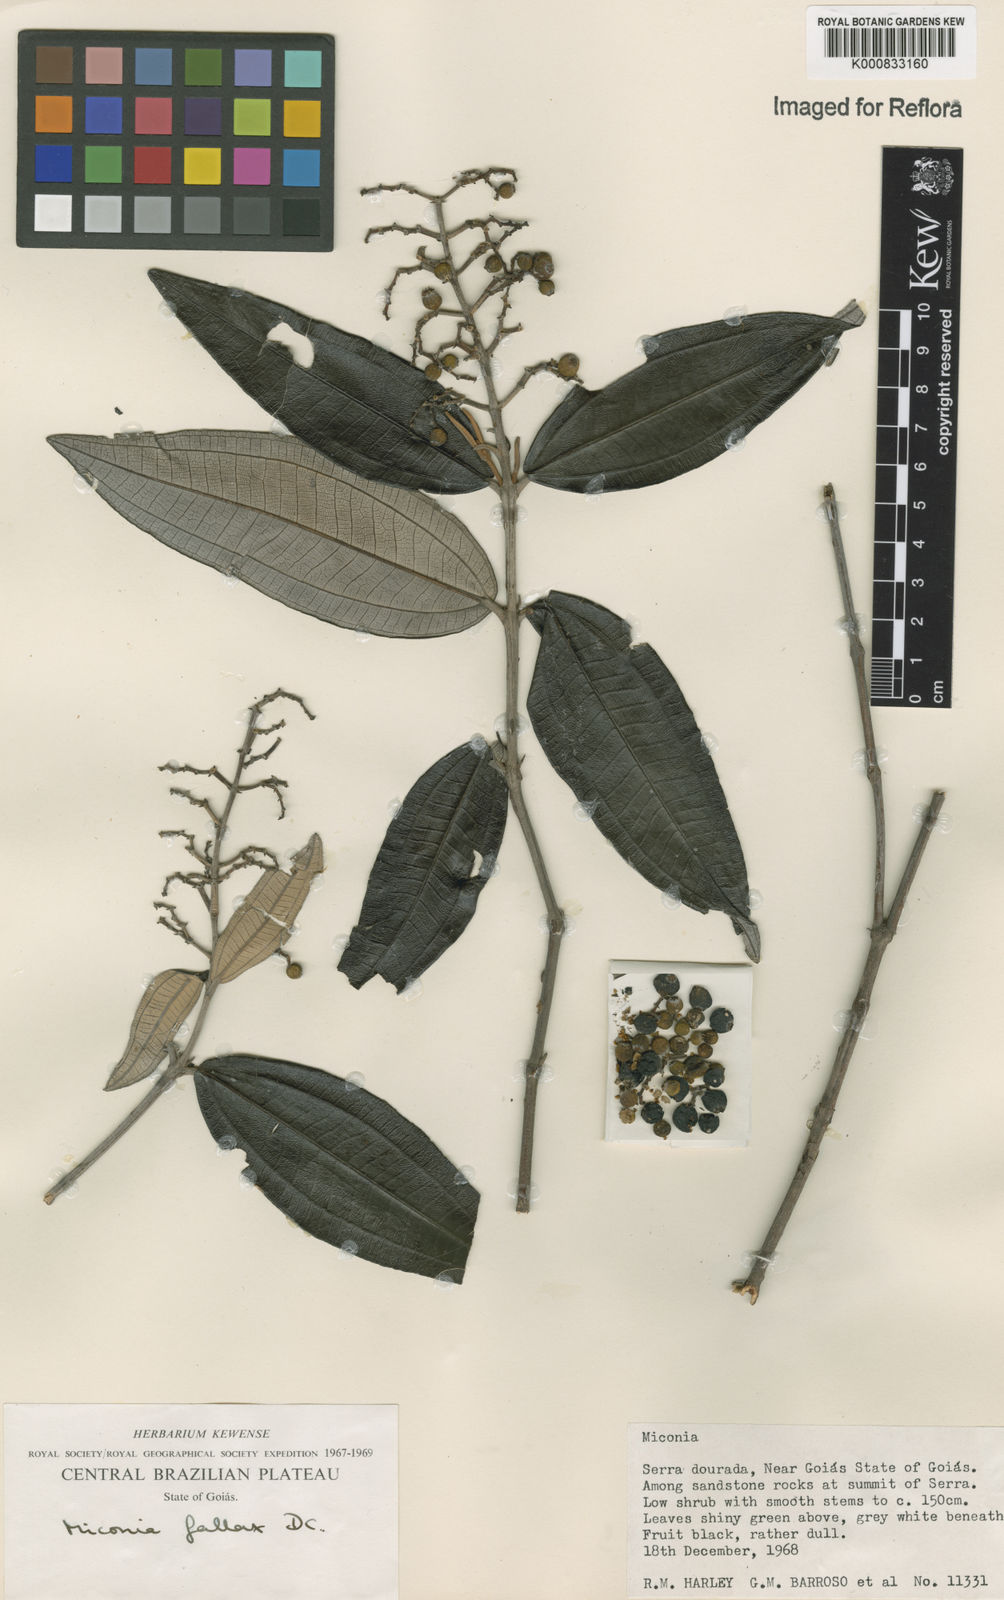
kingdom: Plantae
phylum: Tracheophyta
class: Magnoliopsida
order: Myrtales
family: Melastomataceae
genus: Miconia
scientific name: Miconia fallax
